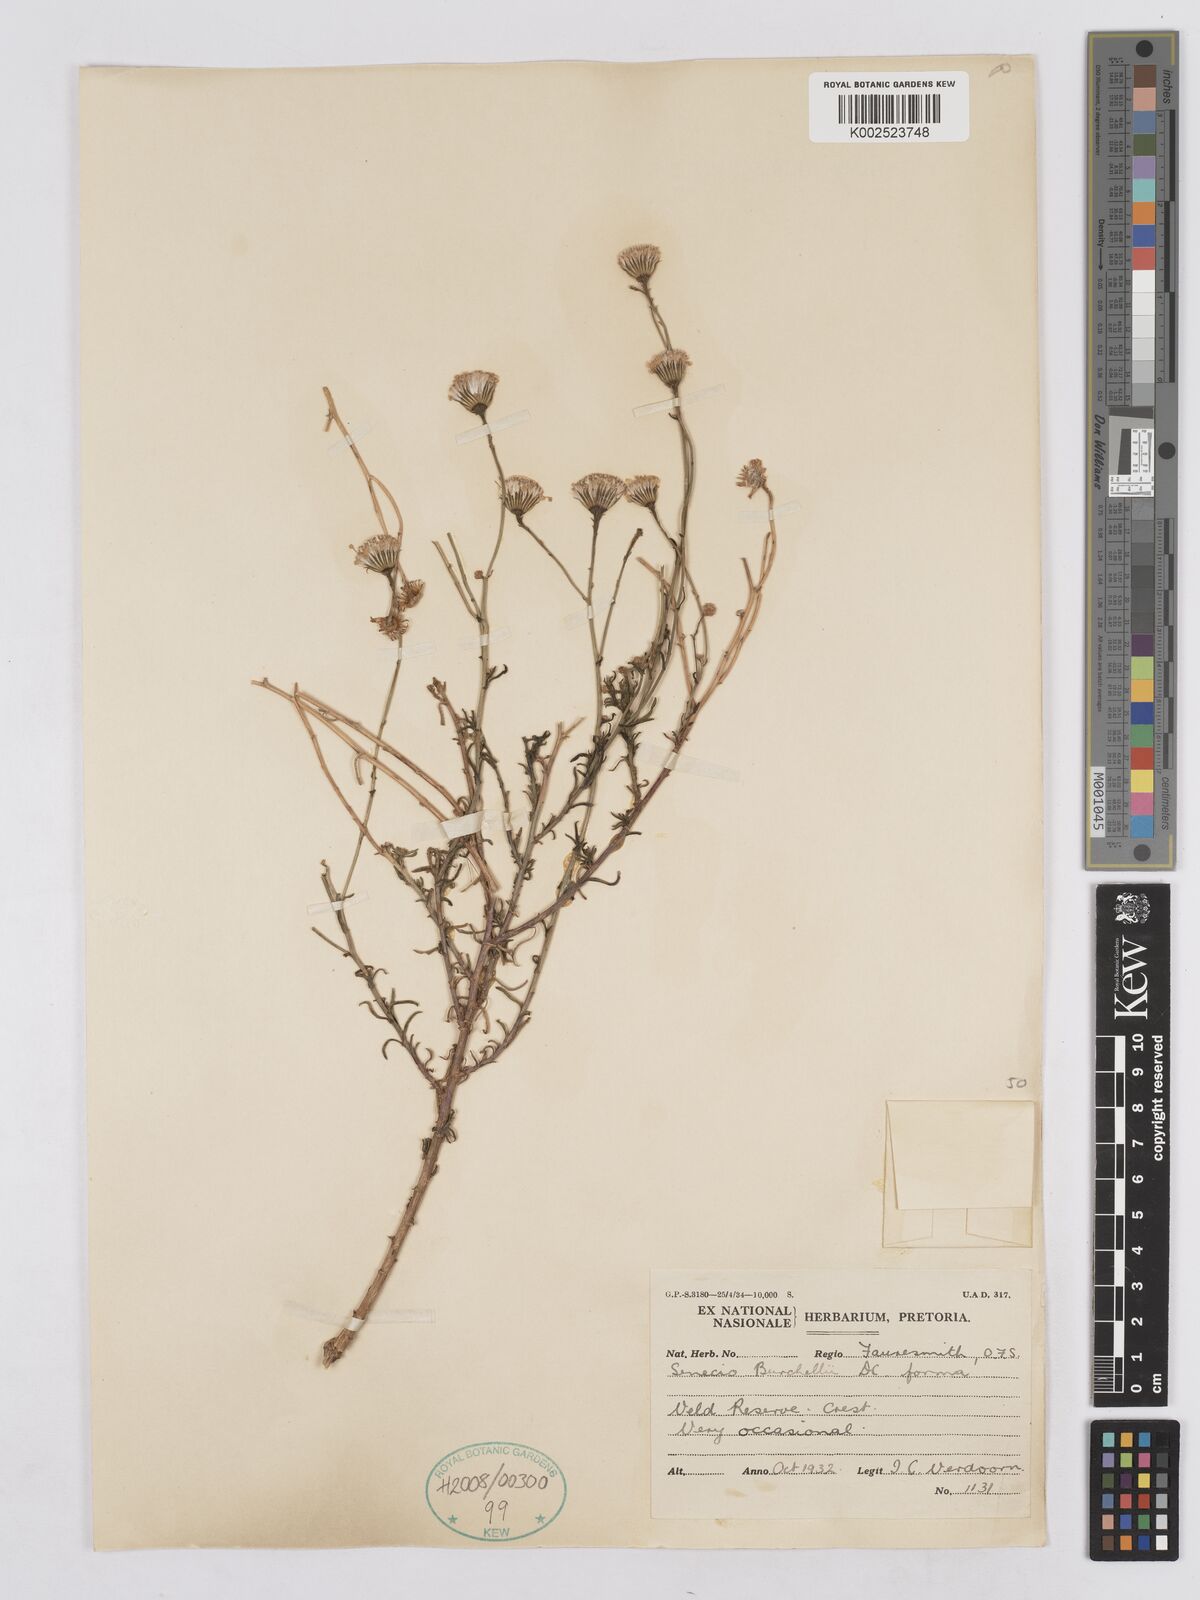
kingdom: Plantae
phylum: Tracheophyta
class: Magnoliopsida
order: Asterales
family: Asteraceae
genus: Senecio
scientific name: Senecio burchellii
